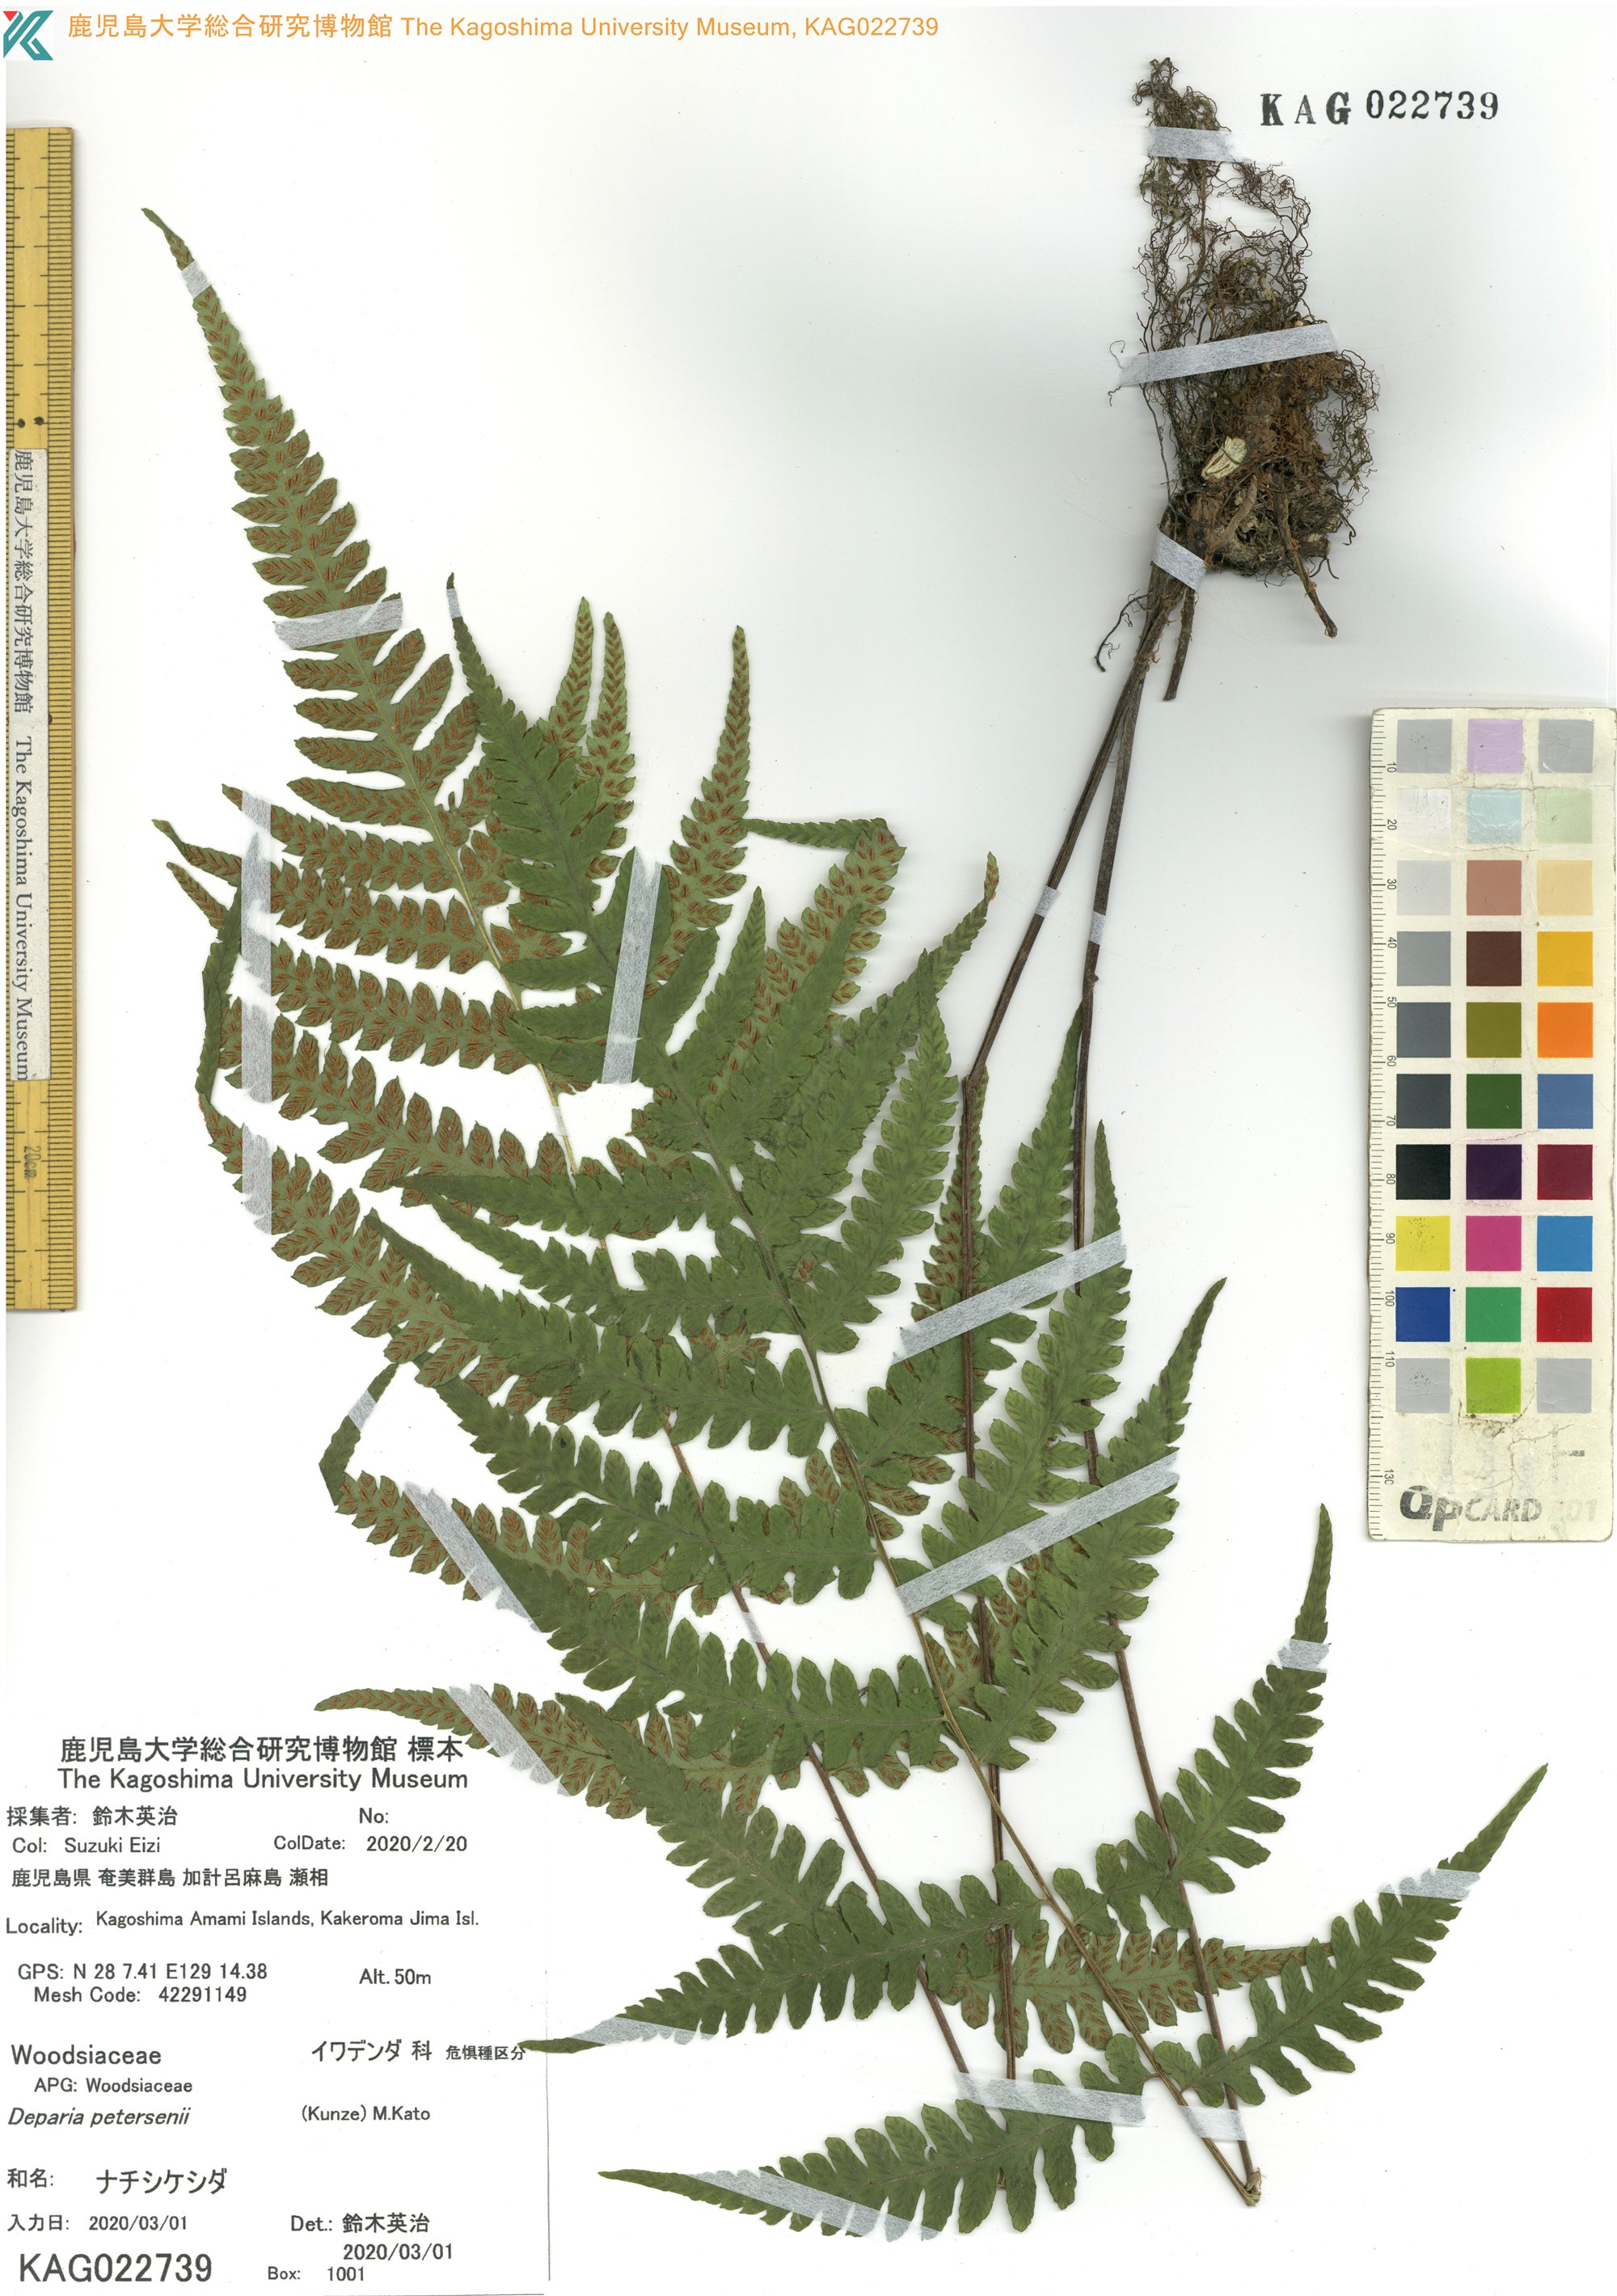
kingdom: Plantae
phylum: Tracheophyta
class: Polypodiopsida
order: Polypodiales
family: Athyriaceae
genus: Deparia
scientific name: Deparia petersenii
